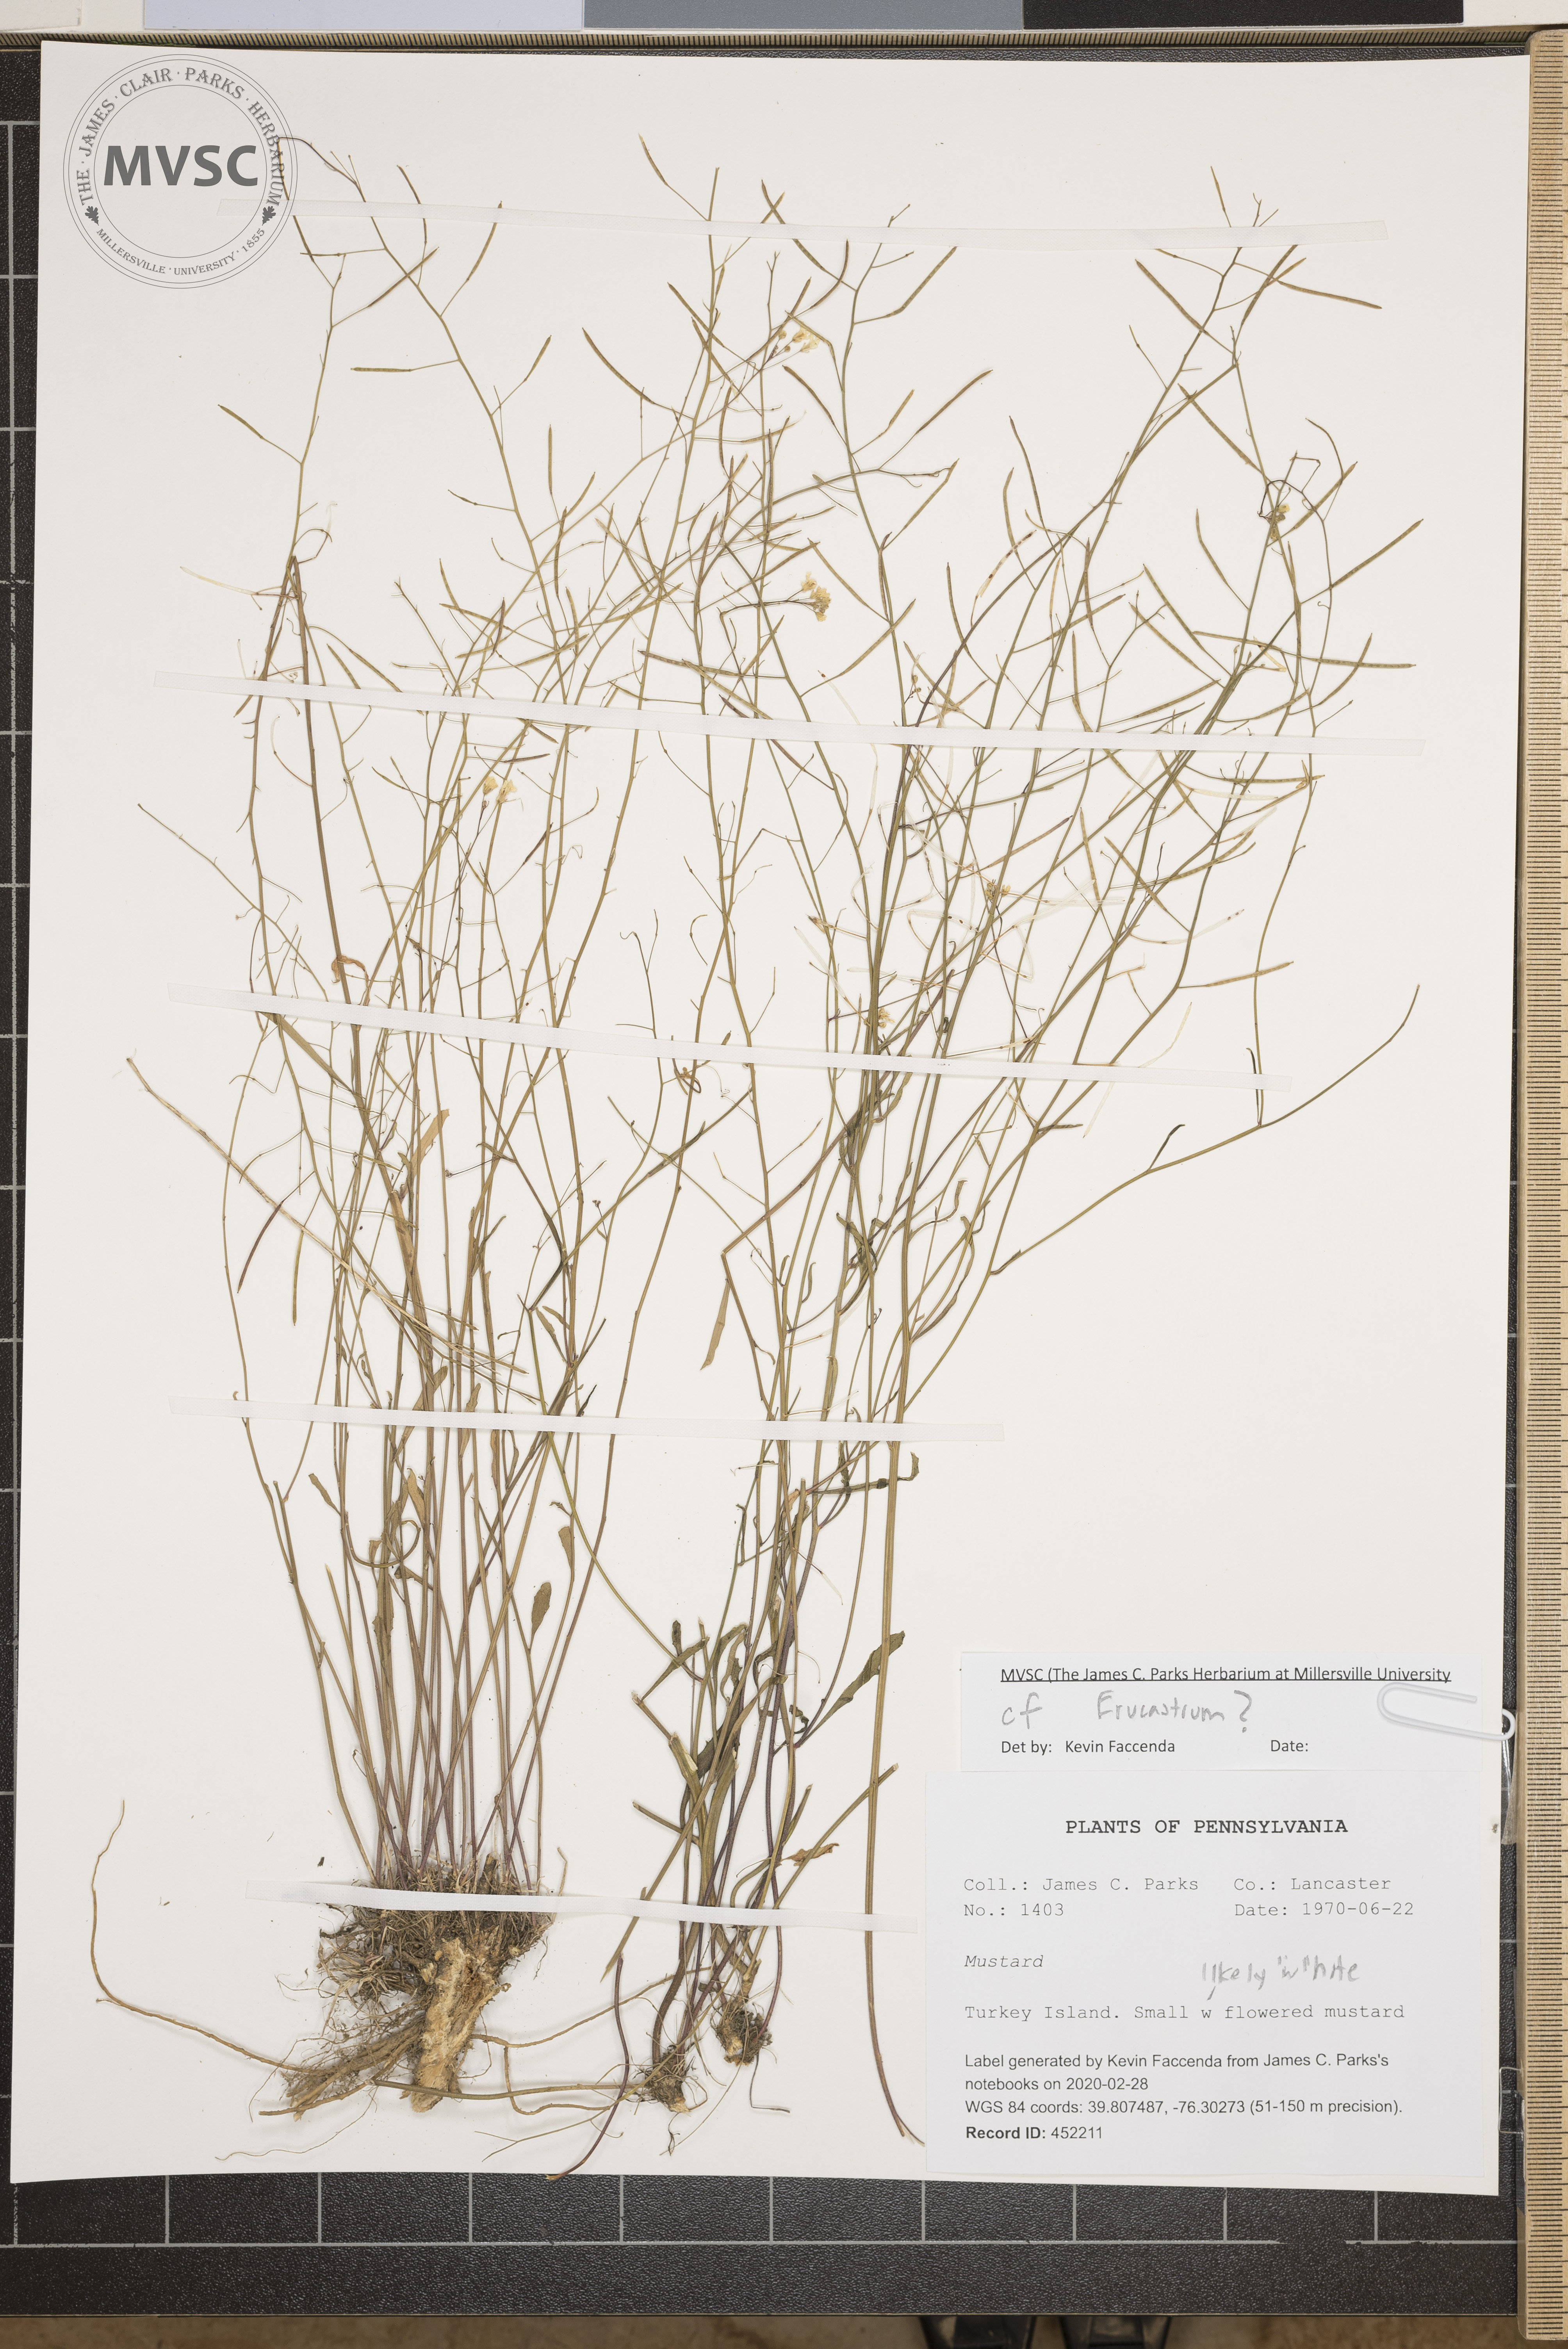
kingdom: Plantae
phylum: Tracheophyta
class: Magnoliopsida
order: Brassicales
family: Brassicaceae
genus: Arabidopsis
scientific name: Arabidopsis lyrata
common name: Lyrate rockcress
